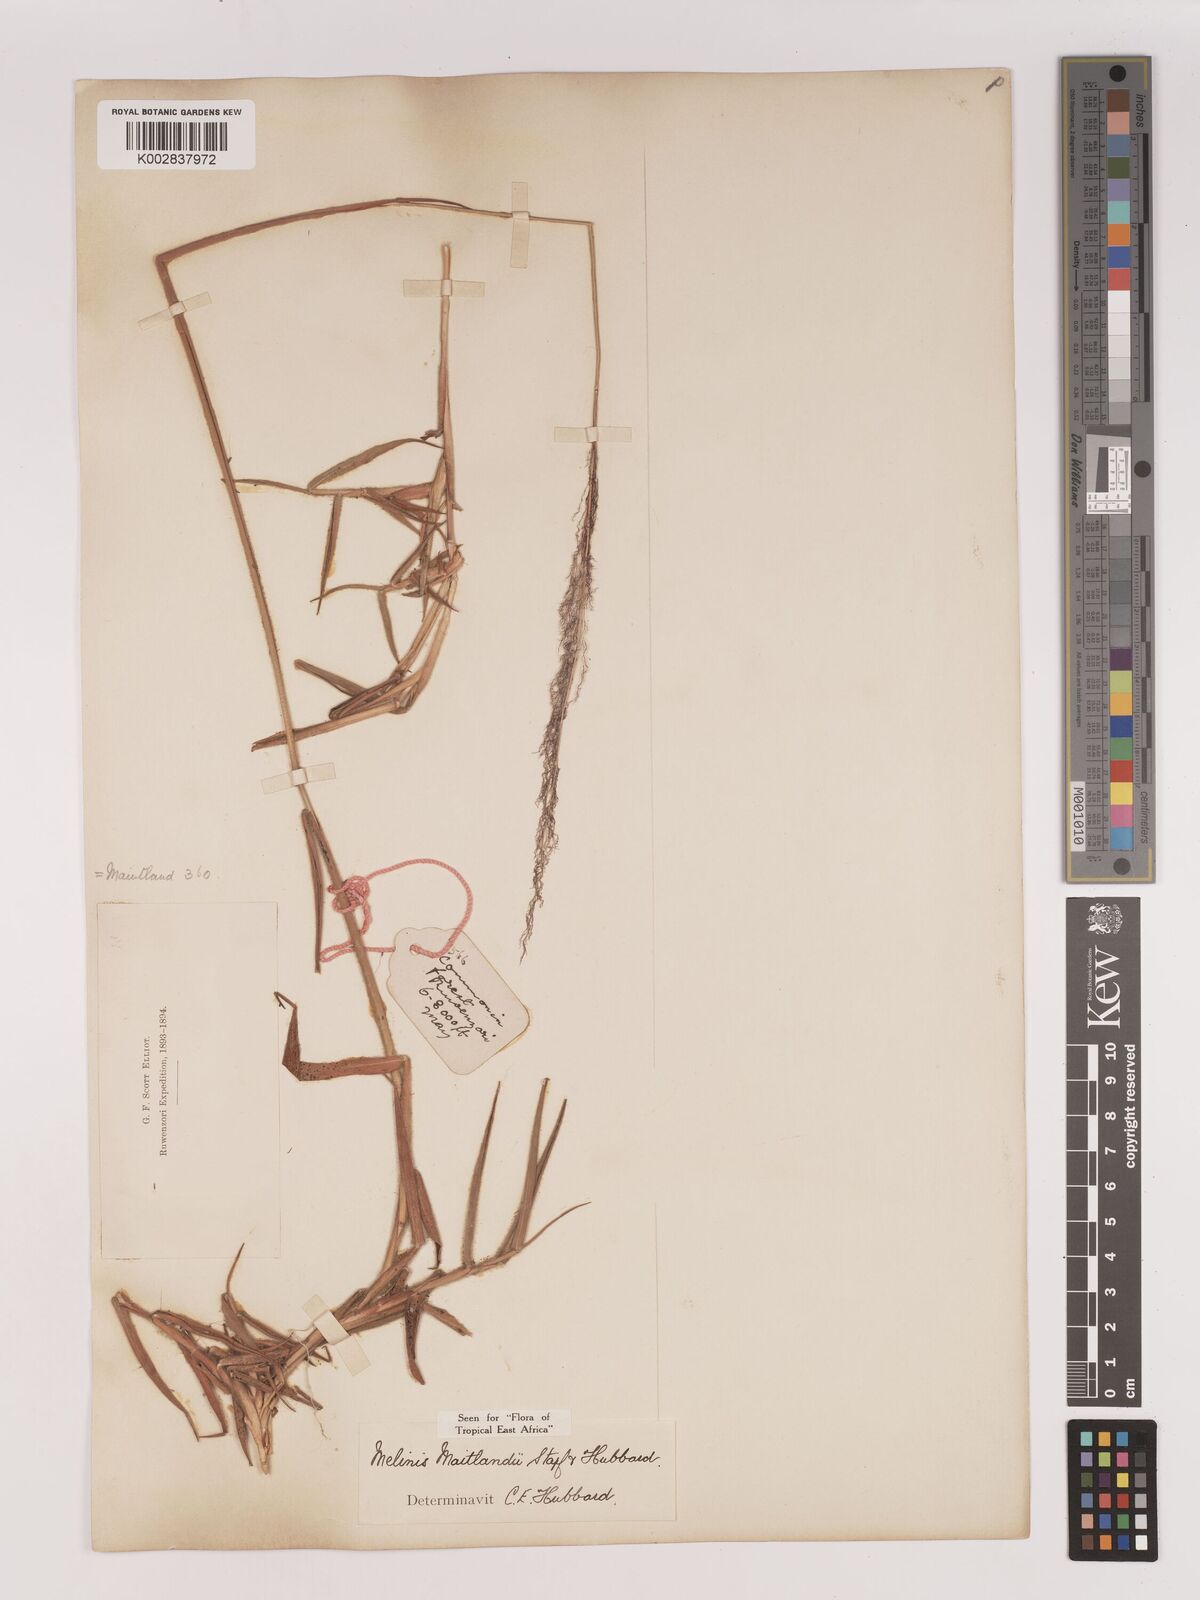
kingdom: Plantae
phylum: Tracheophyta
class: Liliopsida
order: Poales
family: Poaceae
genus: Melinis
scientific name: Melinis minutiflora
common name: Molassesgrass
